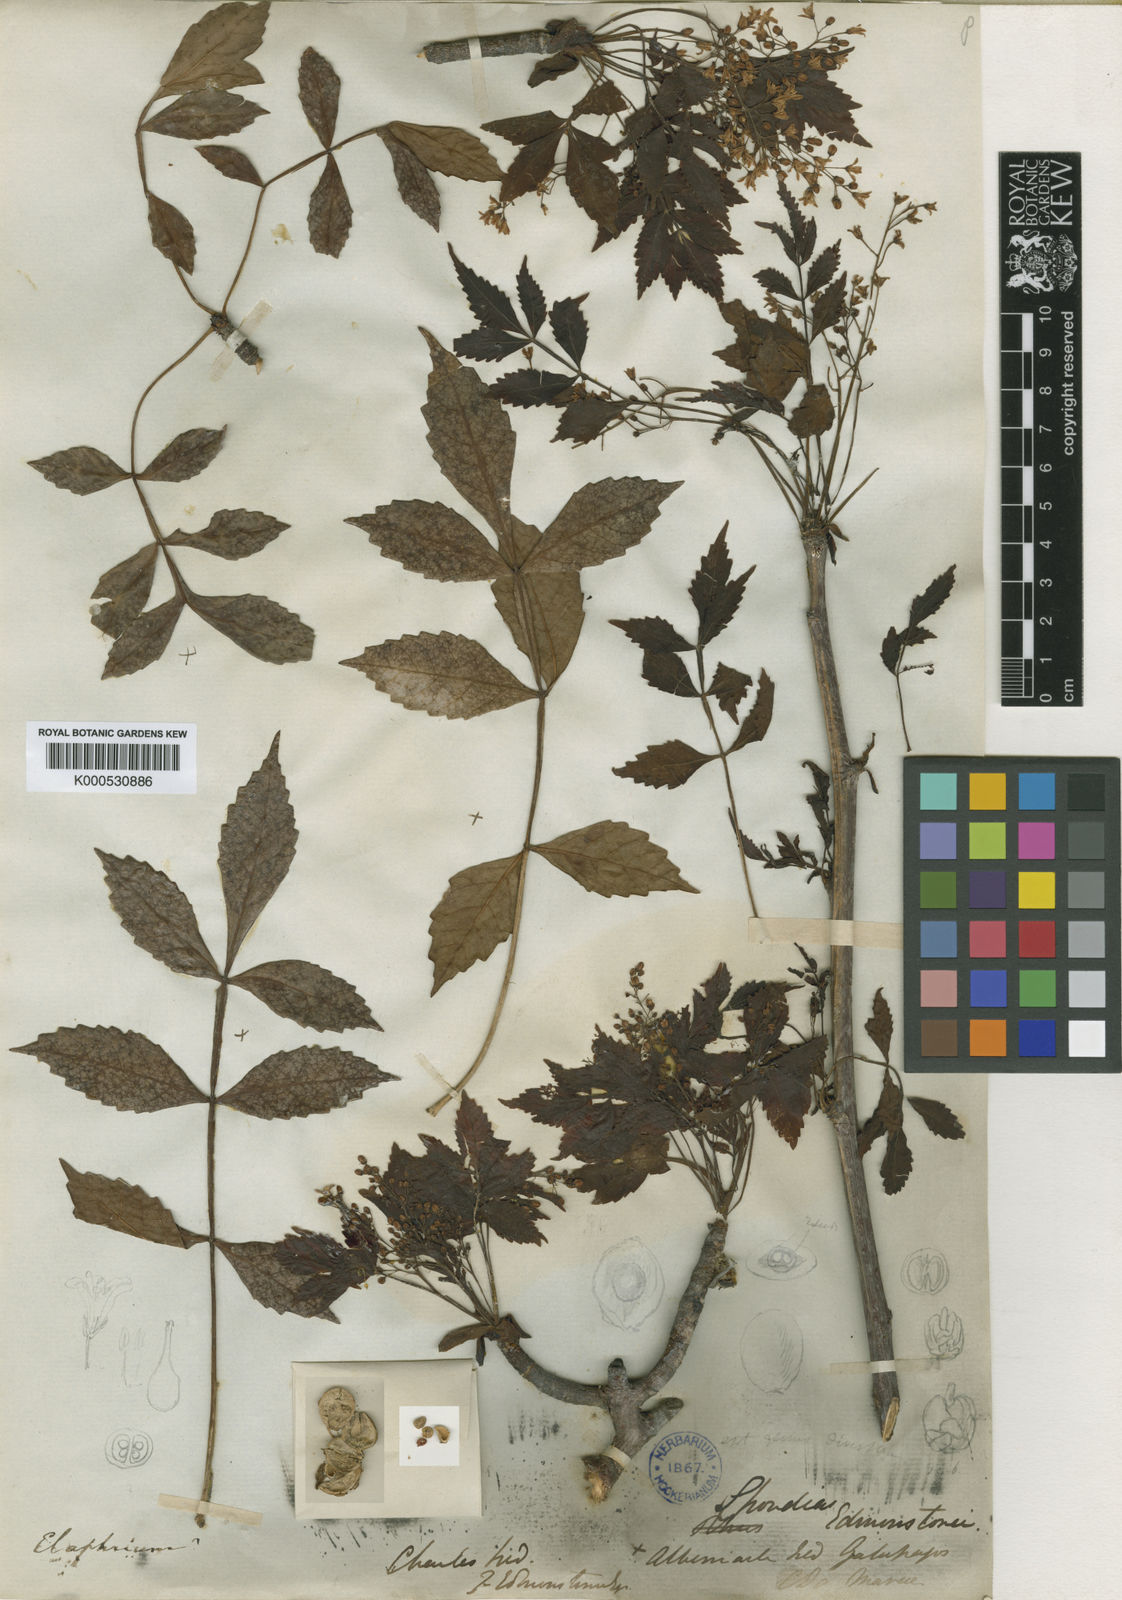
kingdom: Plantae
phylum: Tracheophyta
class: Magnoliopsida
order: Sapindales
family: Burseraceae
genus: Bursera
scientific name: Bursera graveolens
